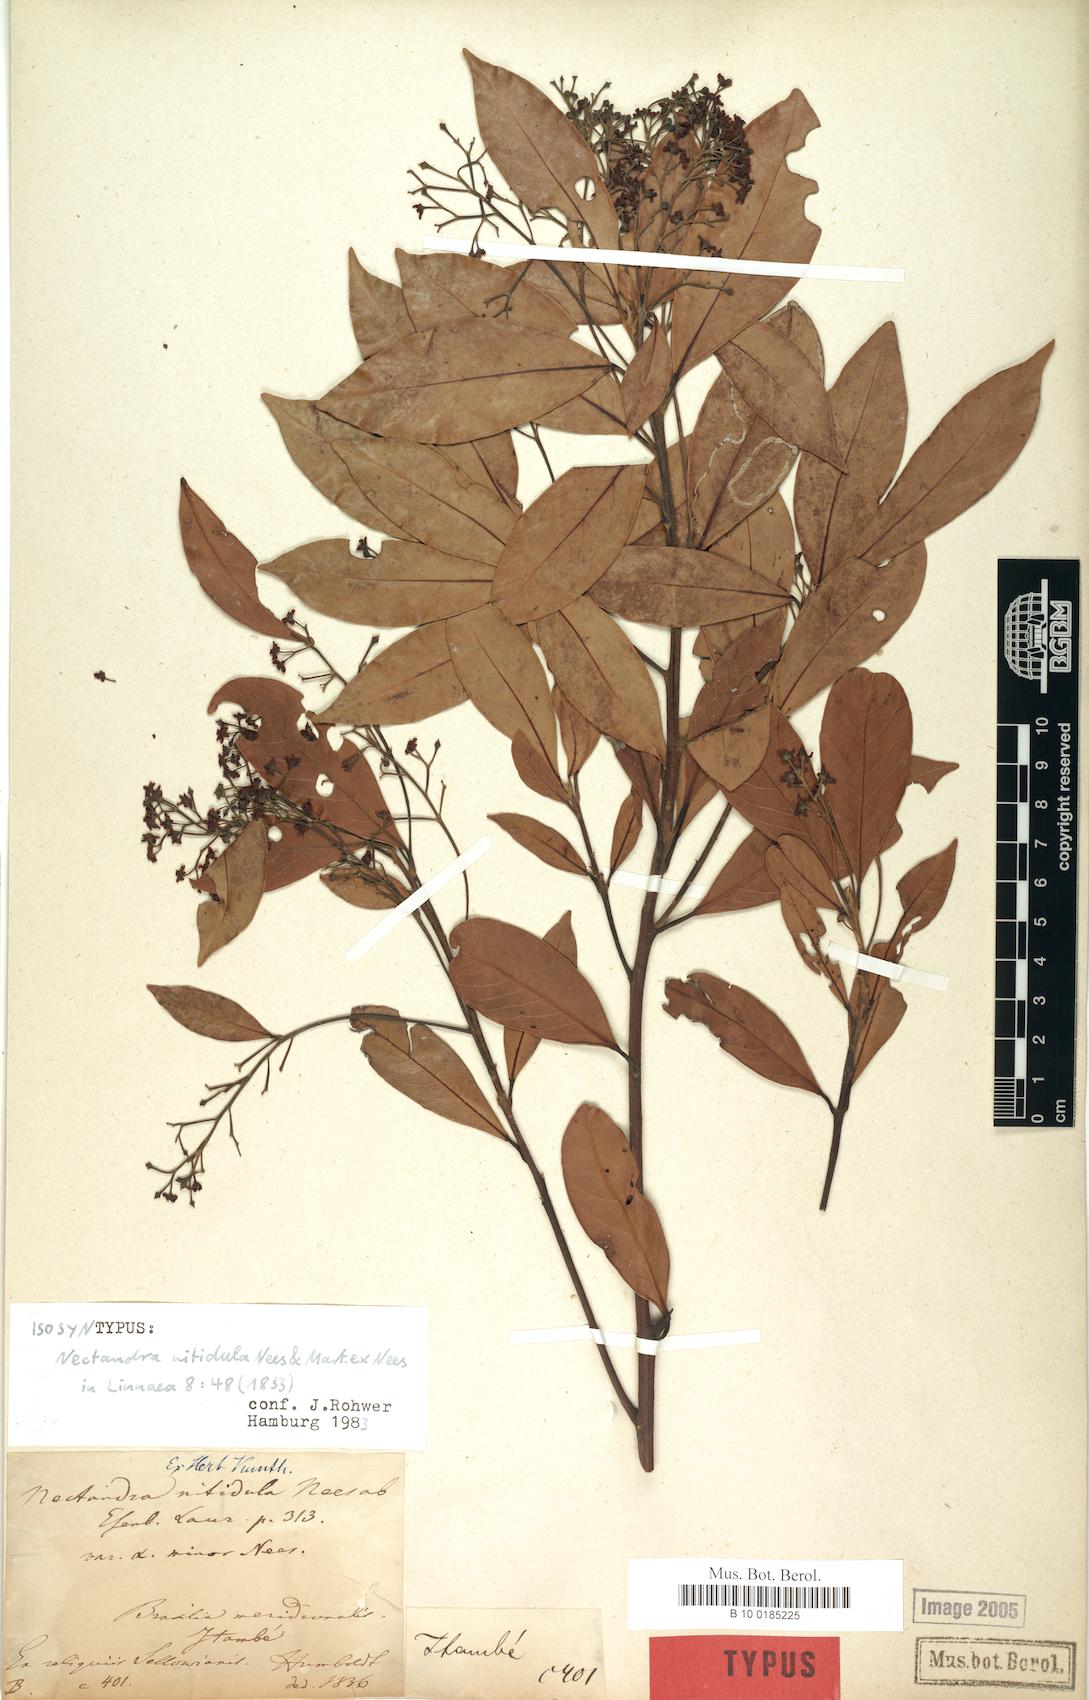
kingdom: Plantae
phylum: Tracheophyta
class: Magnoliopsida
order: Laurales
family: Lauraceae
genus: Nectandra
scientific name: Nectandra nitidula
